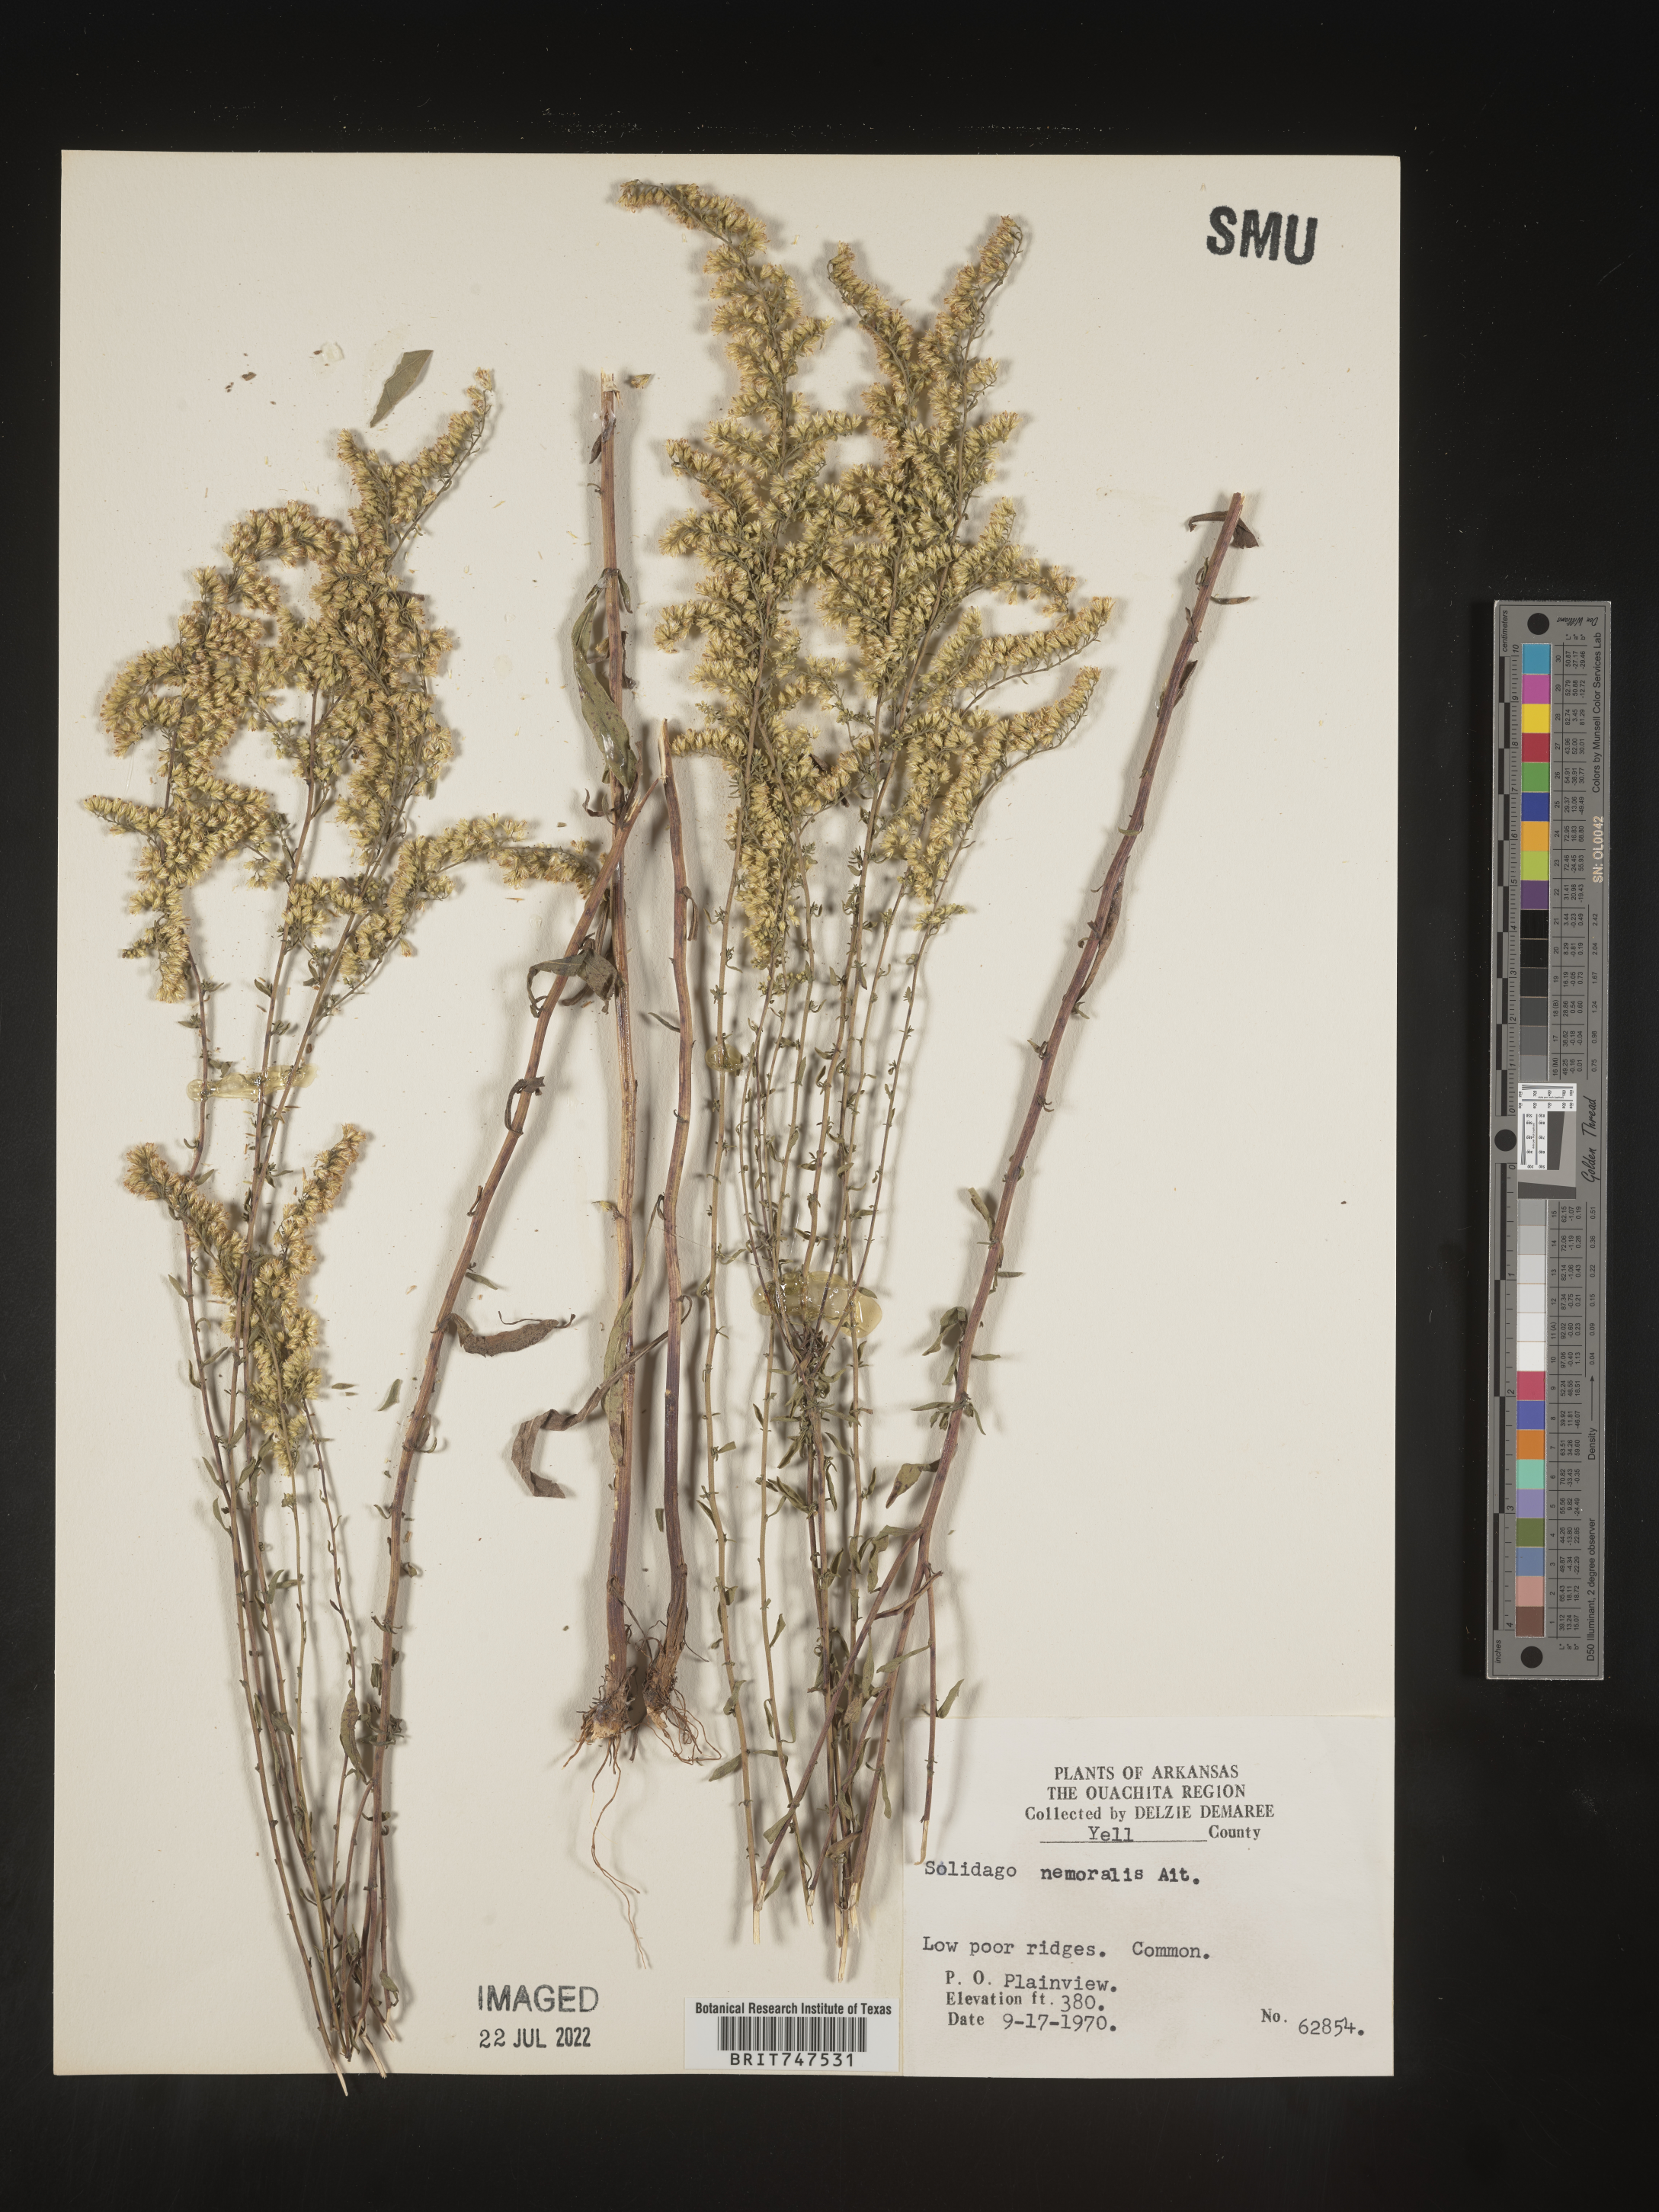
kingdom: Plantae
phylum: Tracheophyta
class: Magnoliopsida
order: Asterales
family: Asteraceae
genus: Solidago
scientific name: Solidago nemoralis
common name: Grey goldenrod
